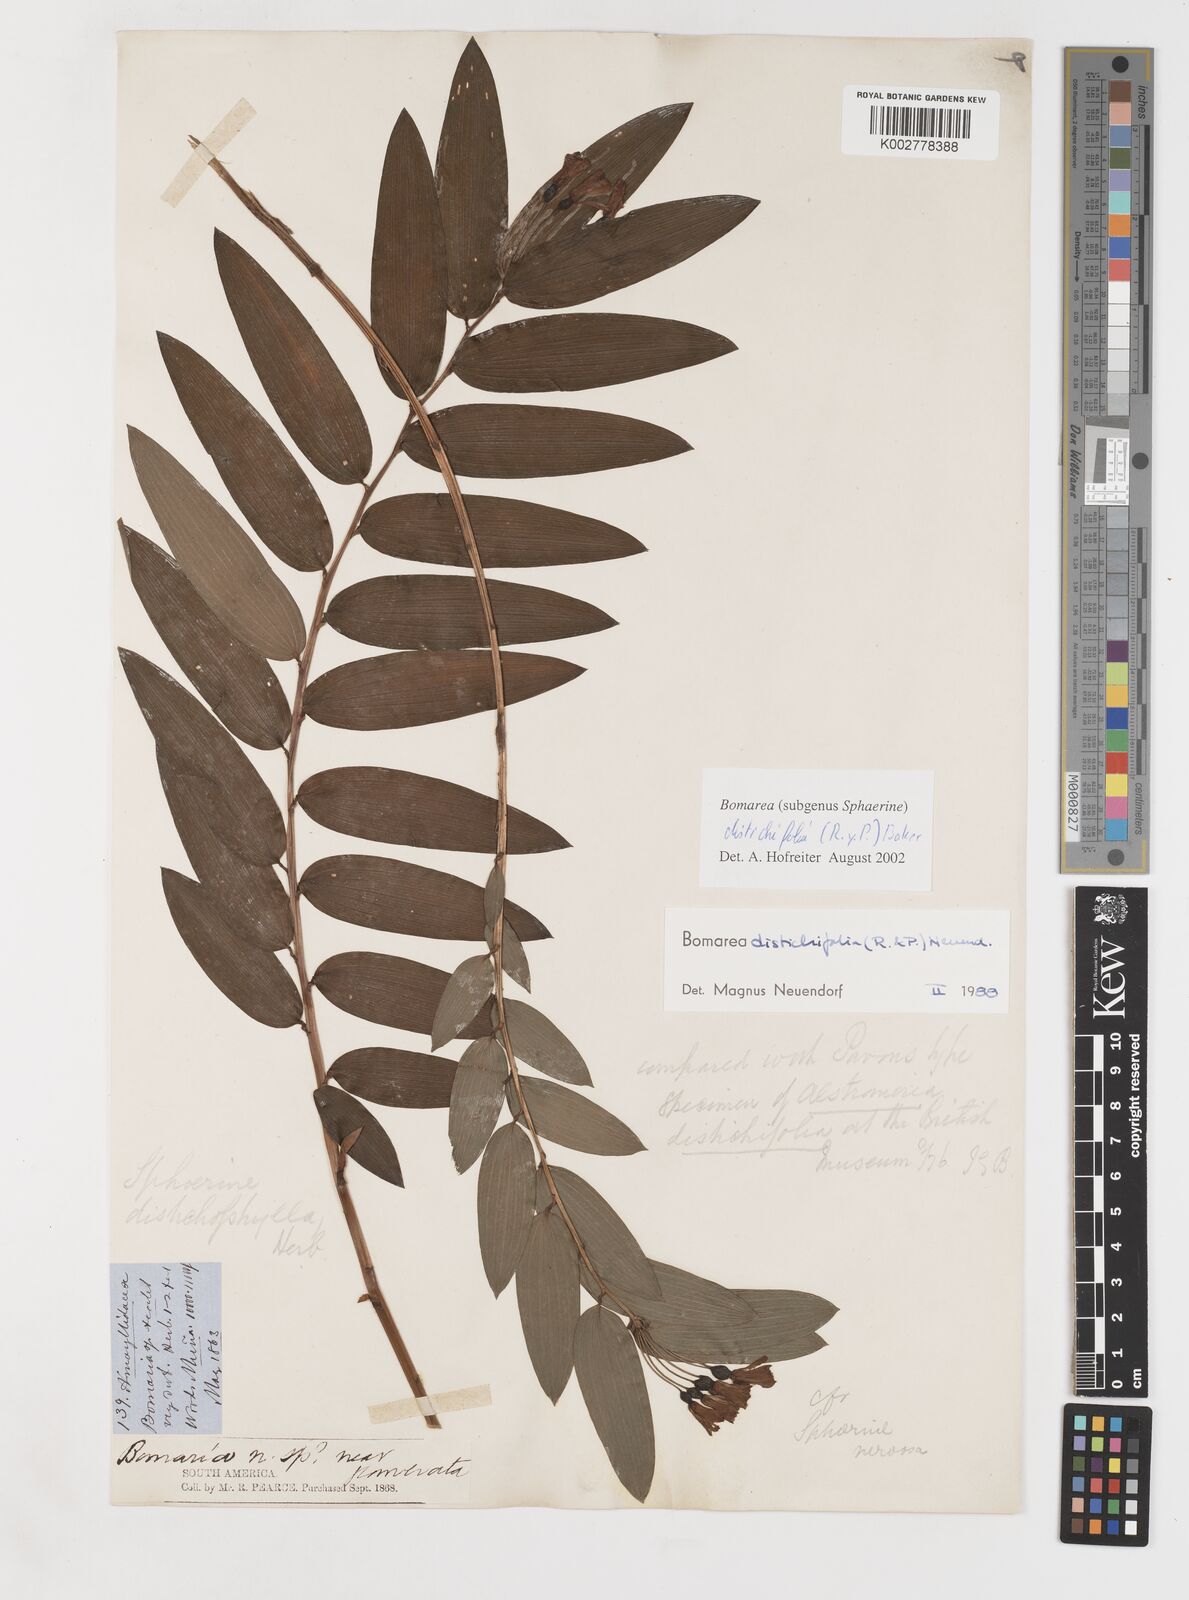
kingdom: Plantae
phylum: Tracheophyta
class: Liliopsida
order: Liliales
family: Alstroemeriaceae
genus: Bomarea
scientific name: Bomarea distichifolia
